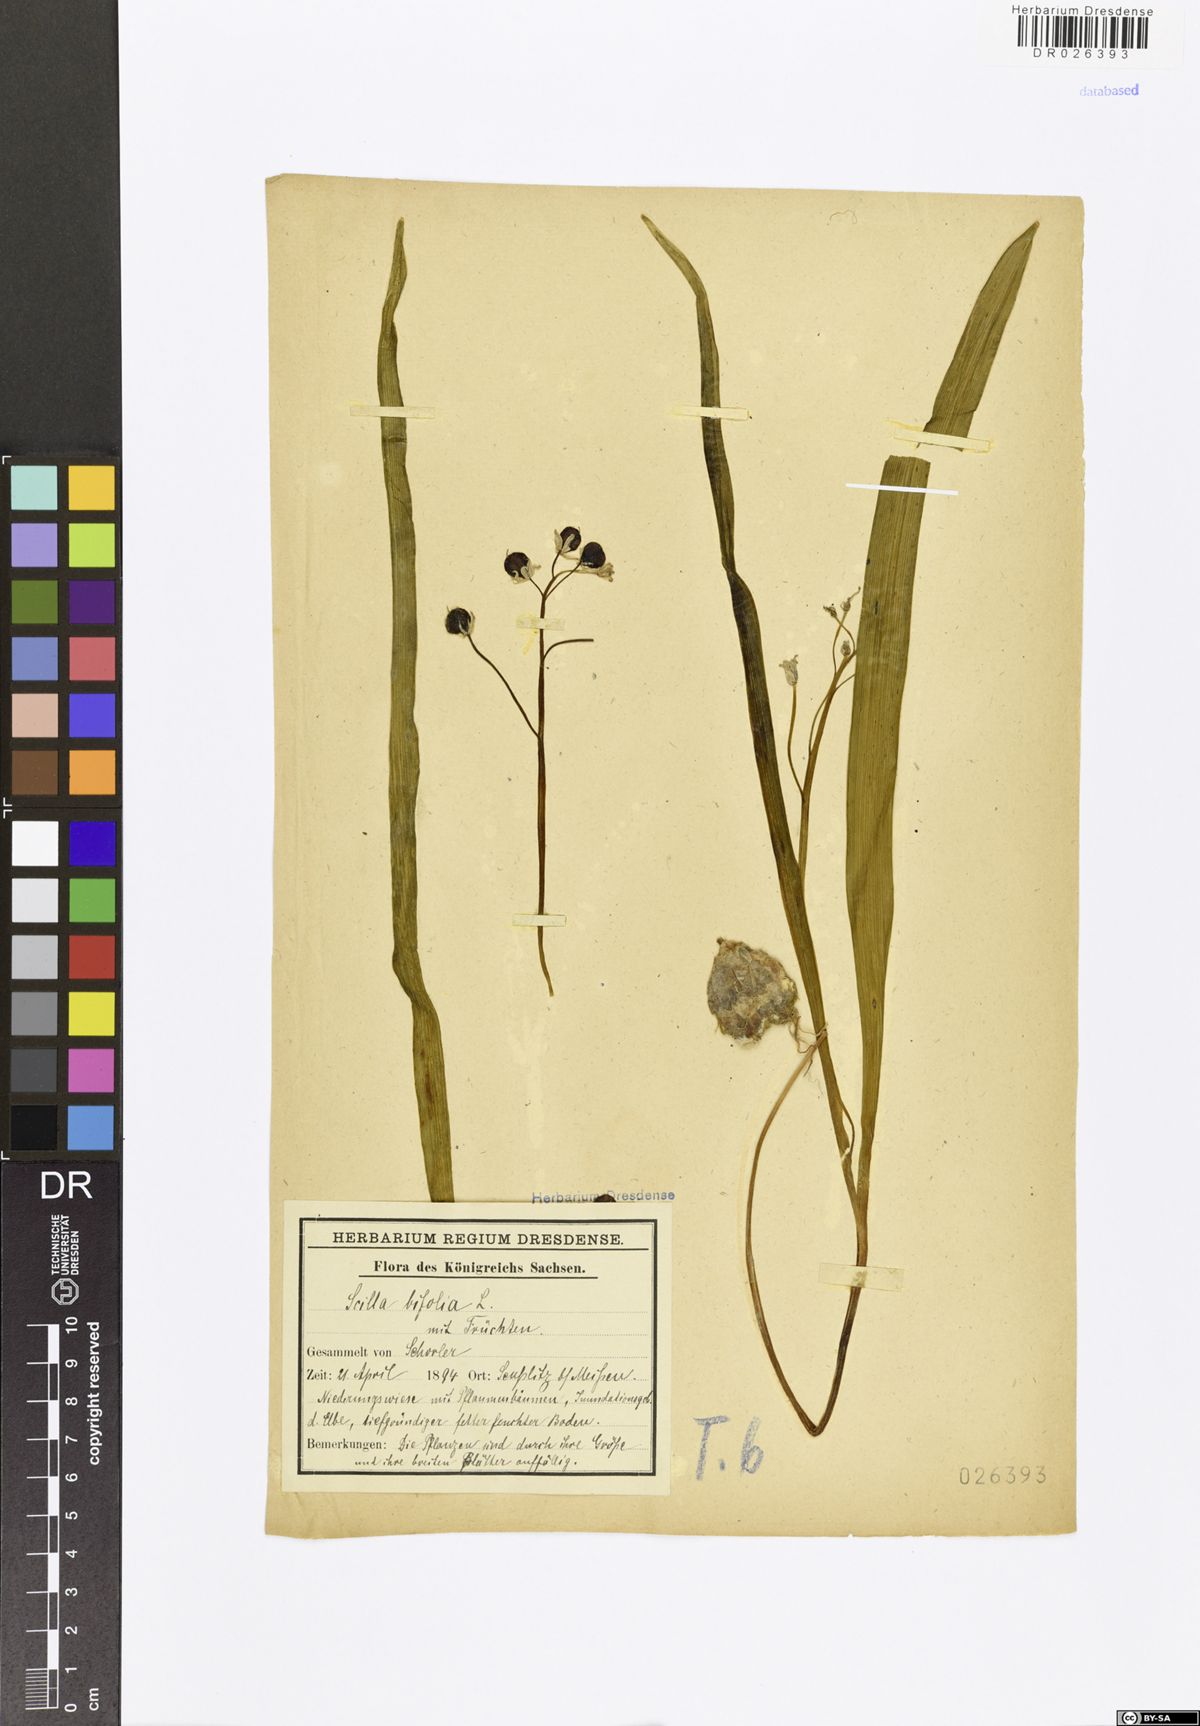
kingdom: Plantae
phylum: Tracheophyta
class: Liliopsida
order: Asparagales
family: Asparagaceae
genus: Scilla
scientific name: Scilla vindobonensis
